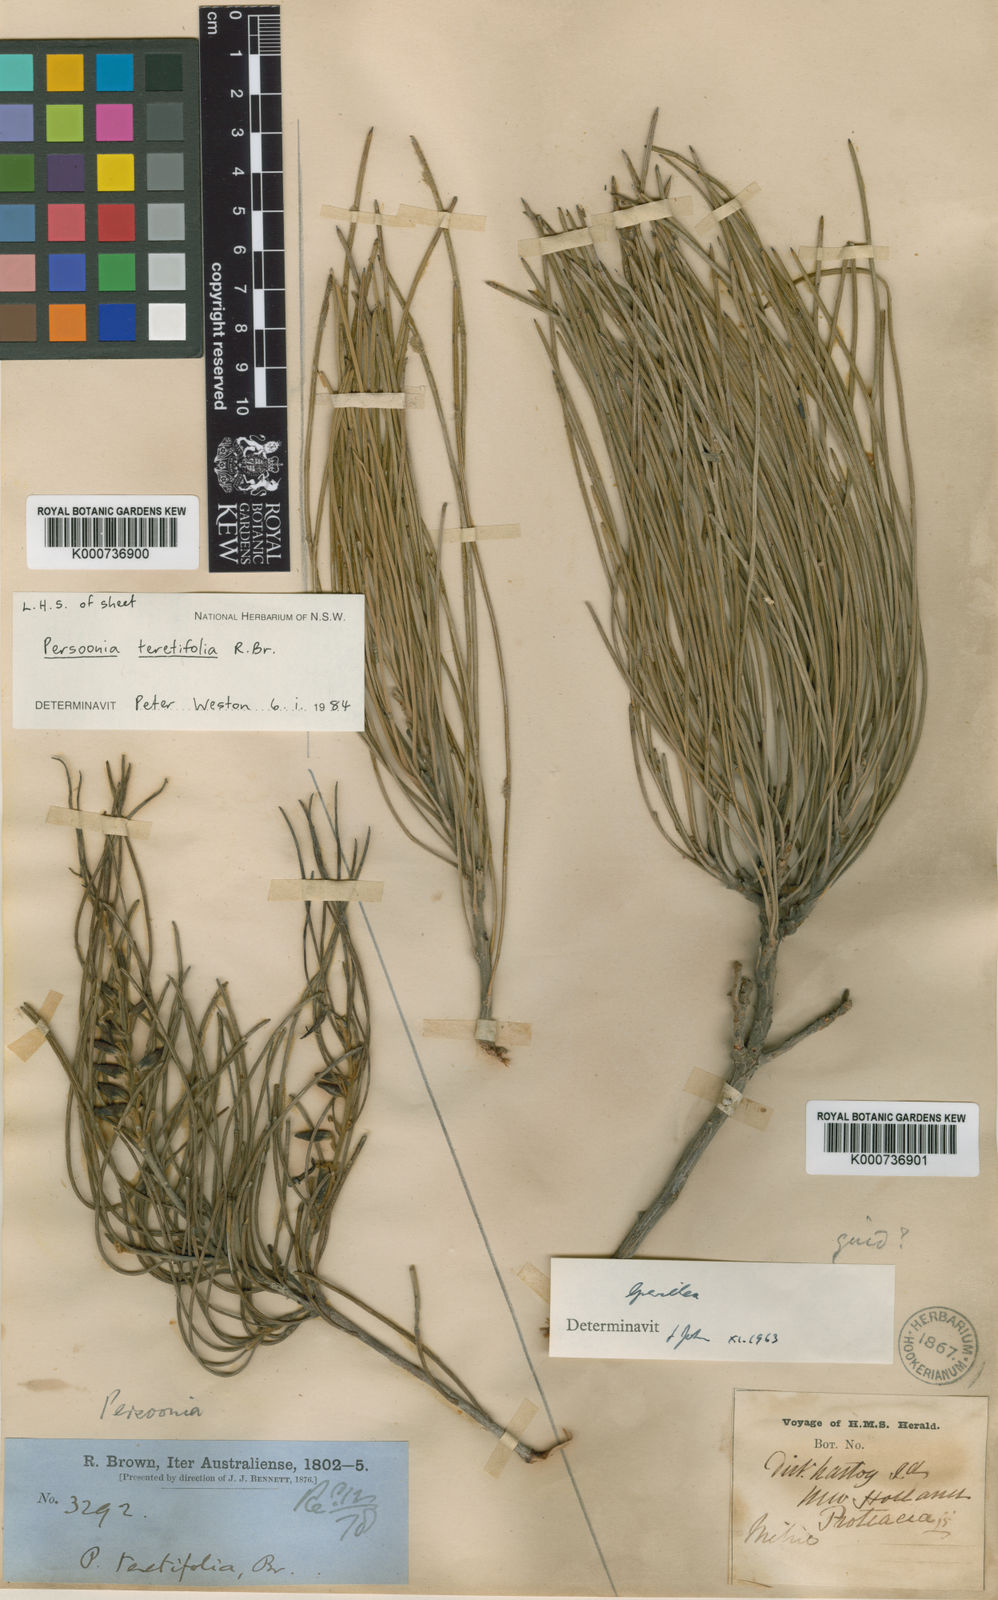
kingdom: Plantae
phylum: Tracheophyta
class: Magnoliopsida
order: Proteales
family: Proteaceae
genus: Persoonia
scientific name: Persoonia teretifolia
